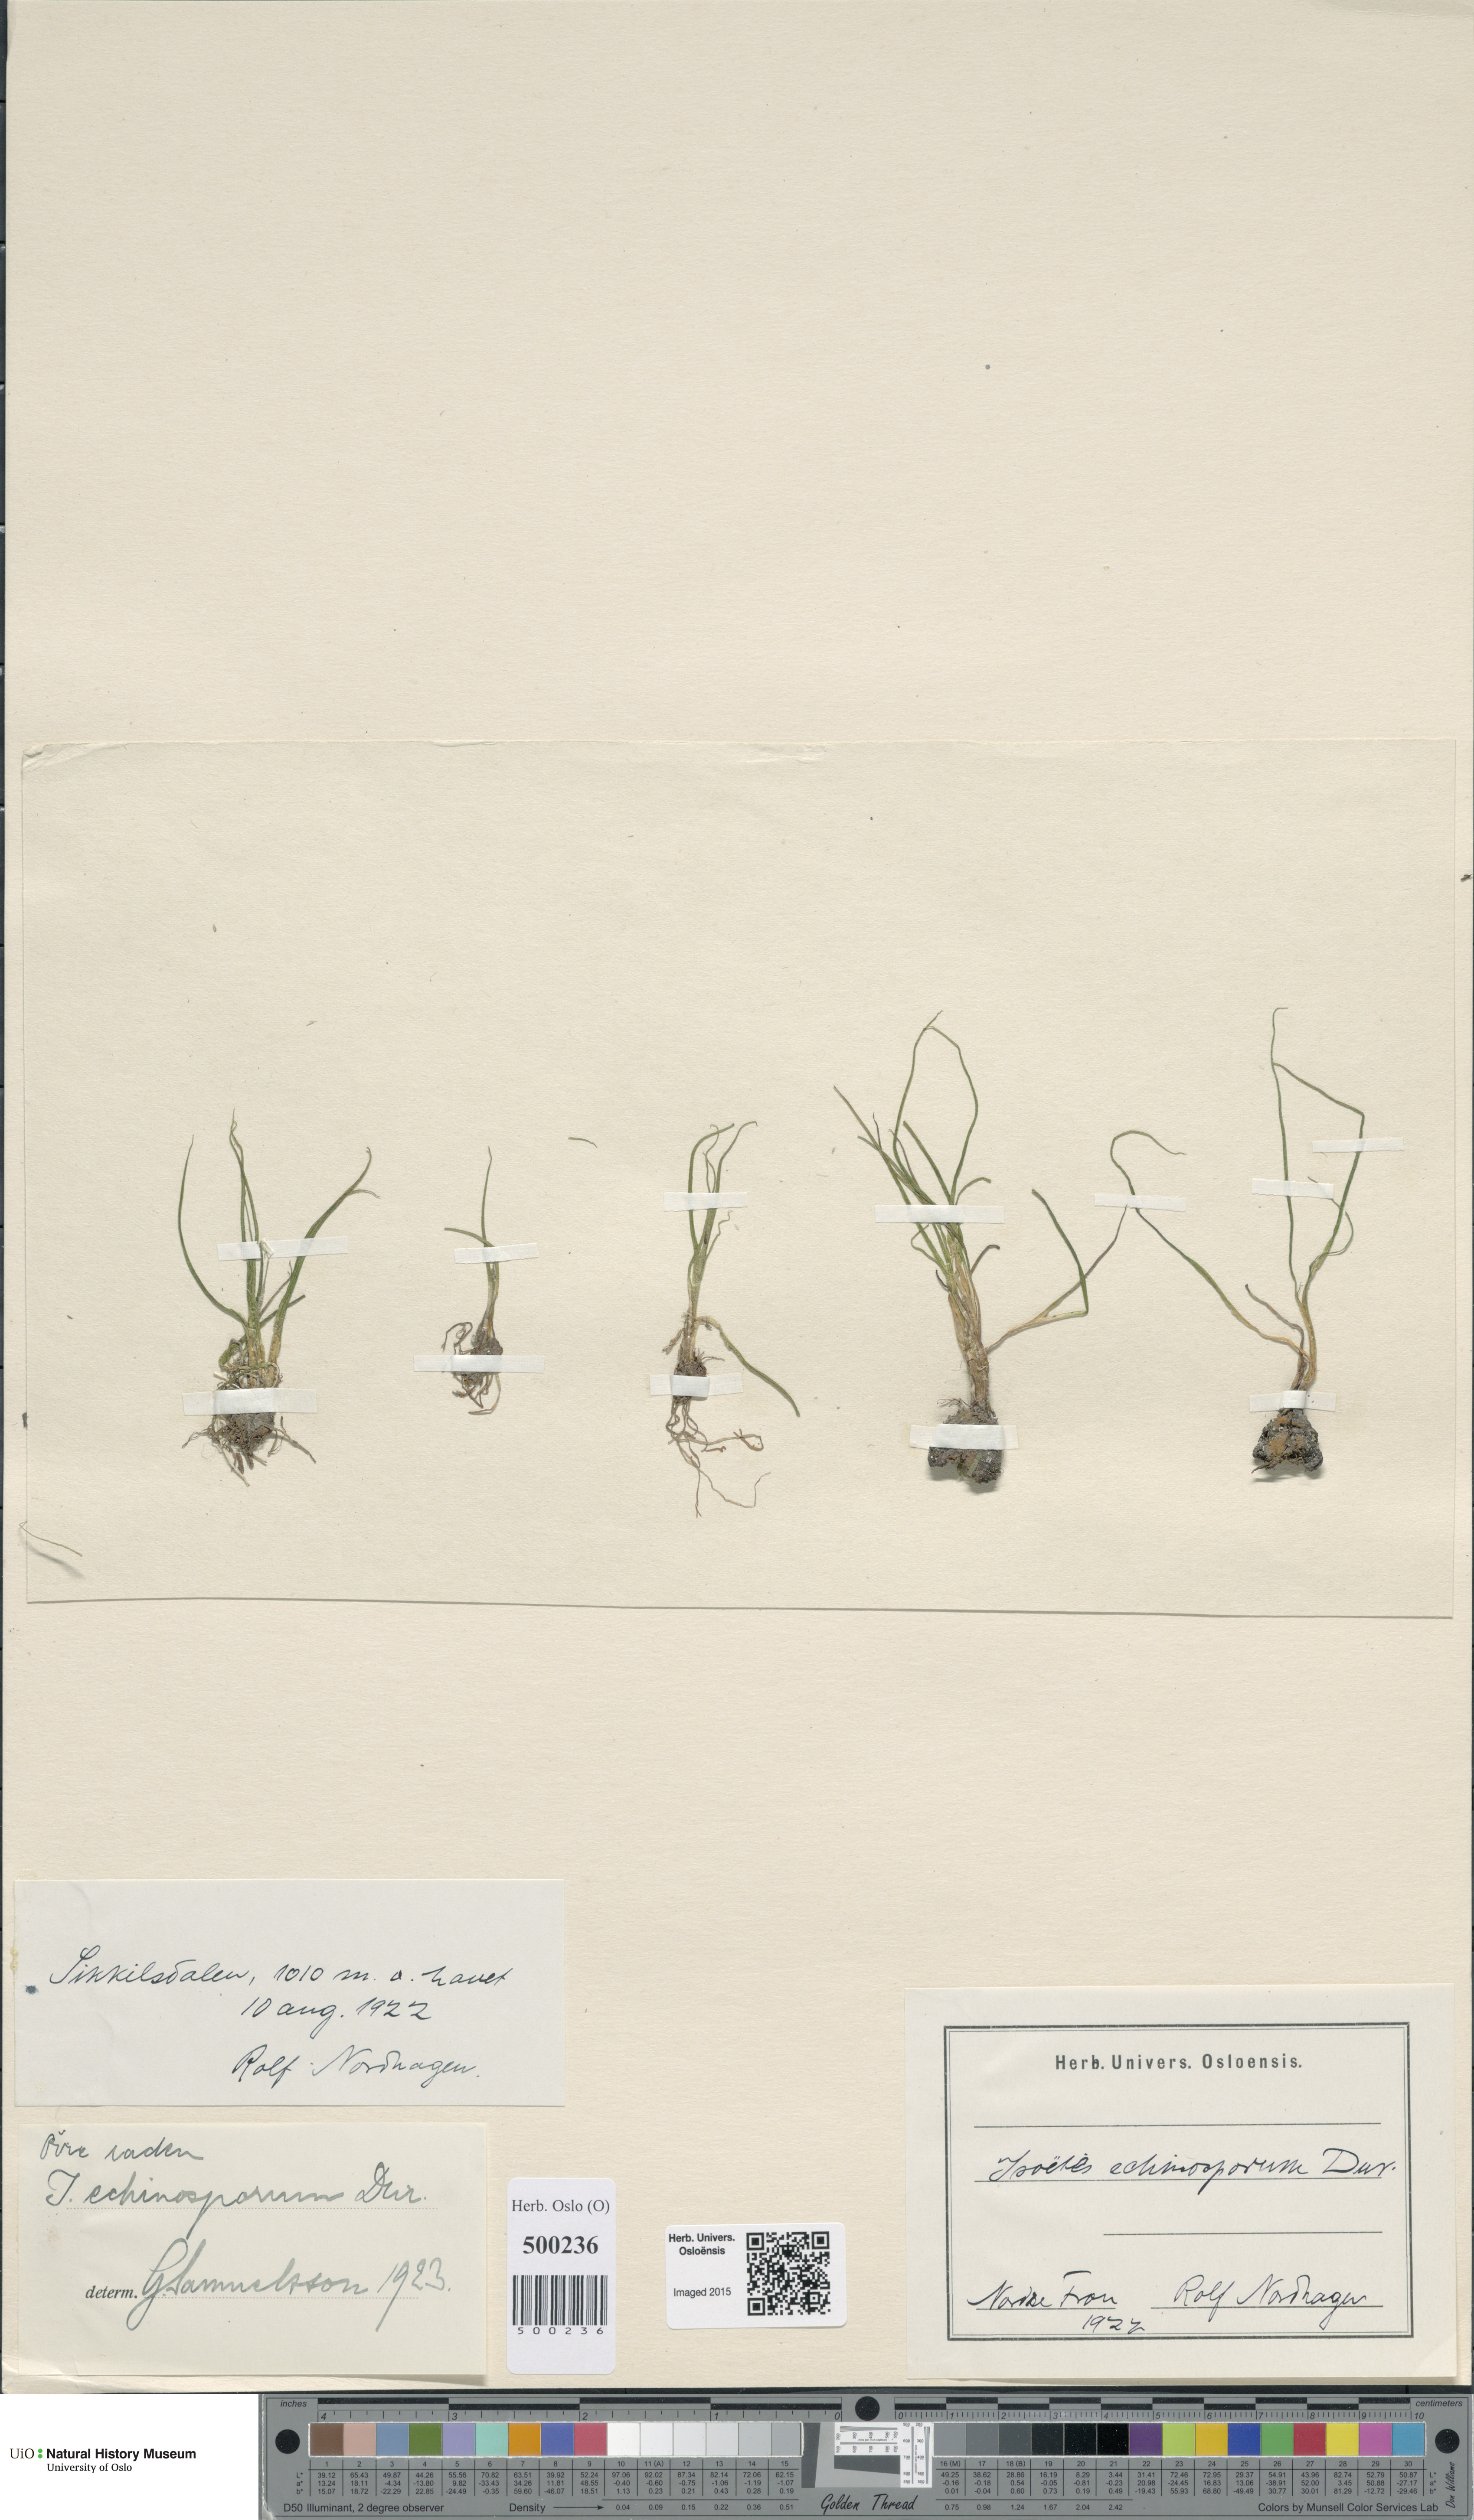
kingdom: Plantae
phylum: Tracheophyta
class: Lycopodiopsida
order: Isoetales
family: Isoetaceae
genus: Isoetes
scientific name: Isoetes echinospora
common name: Spring quillwort
